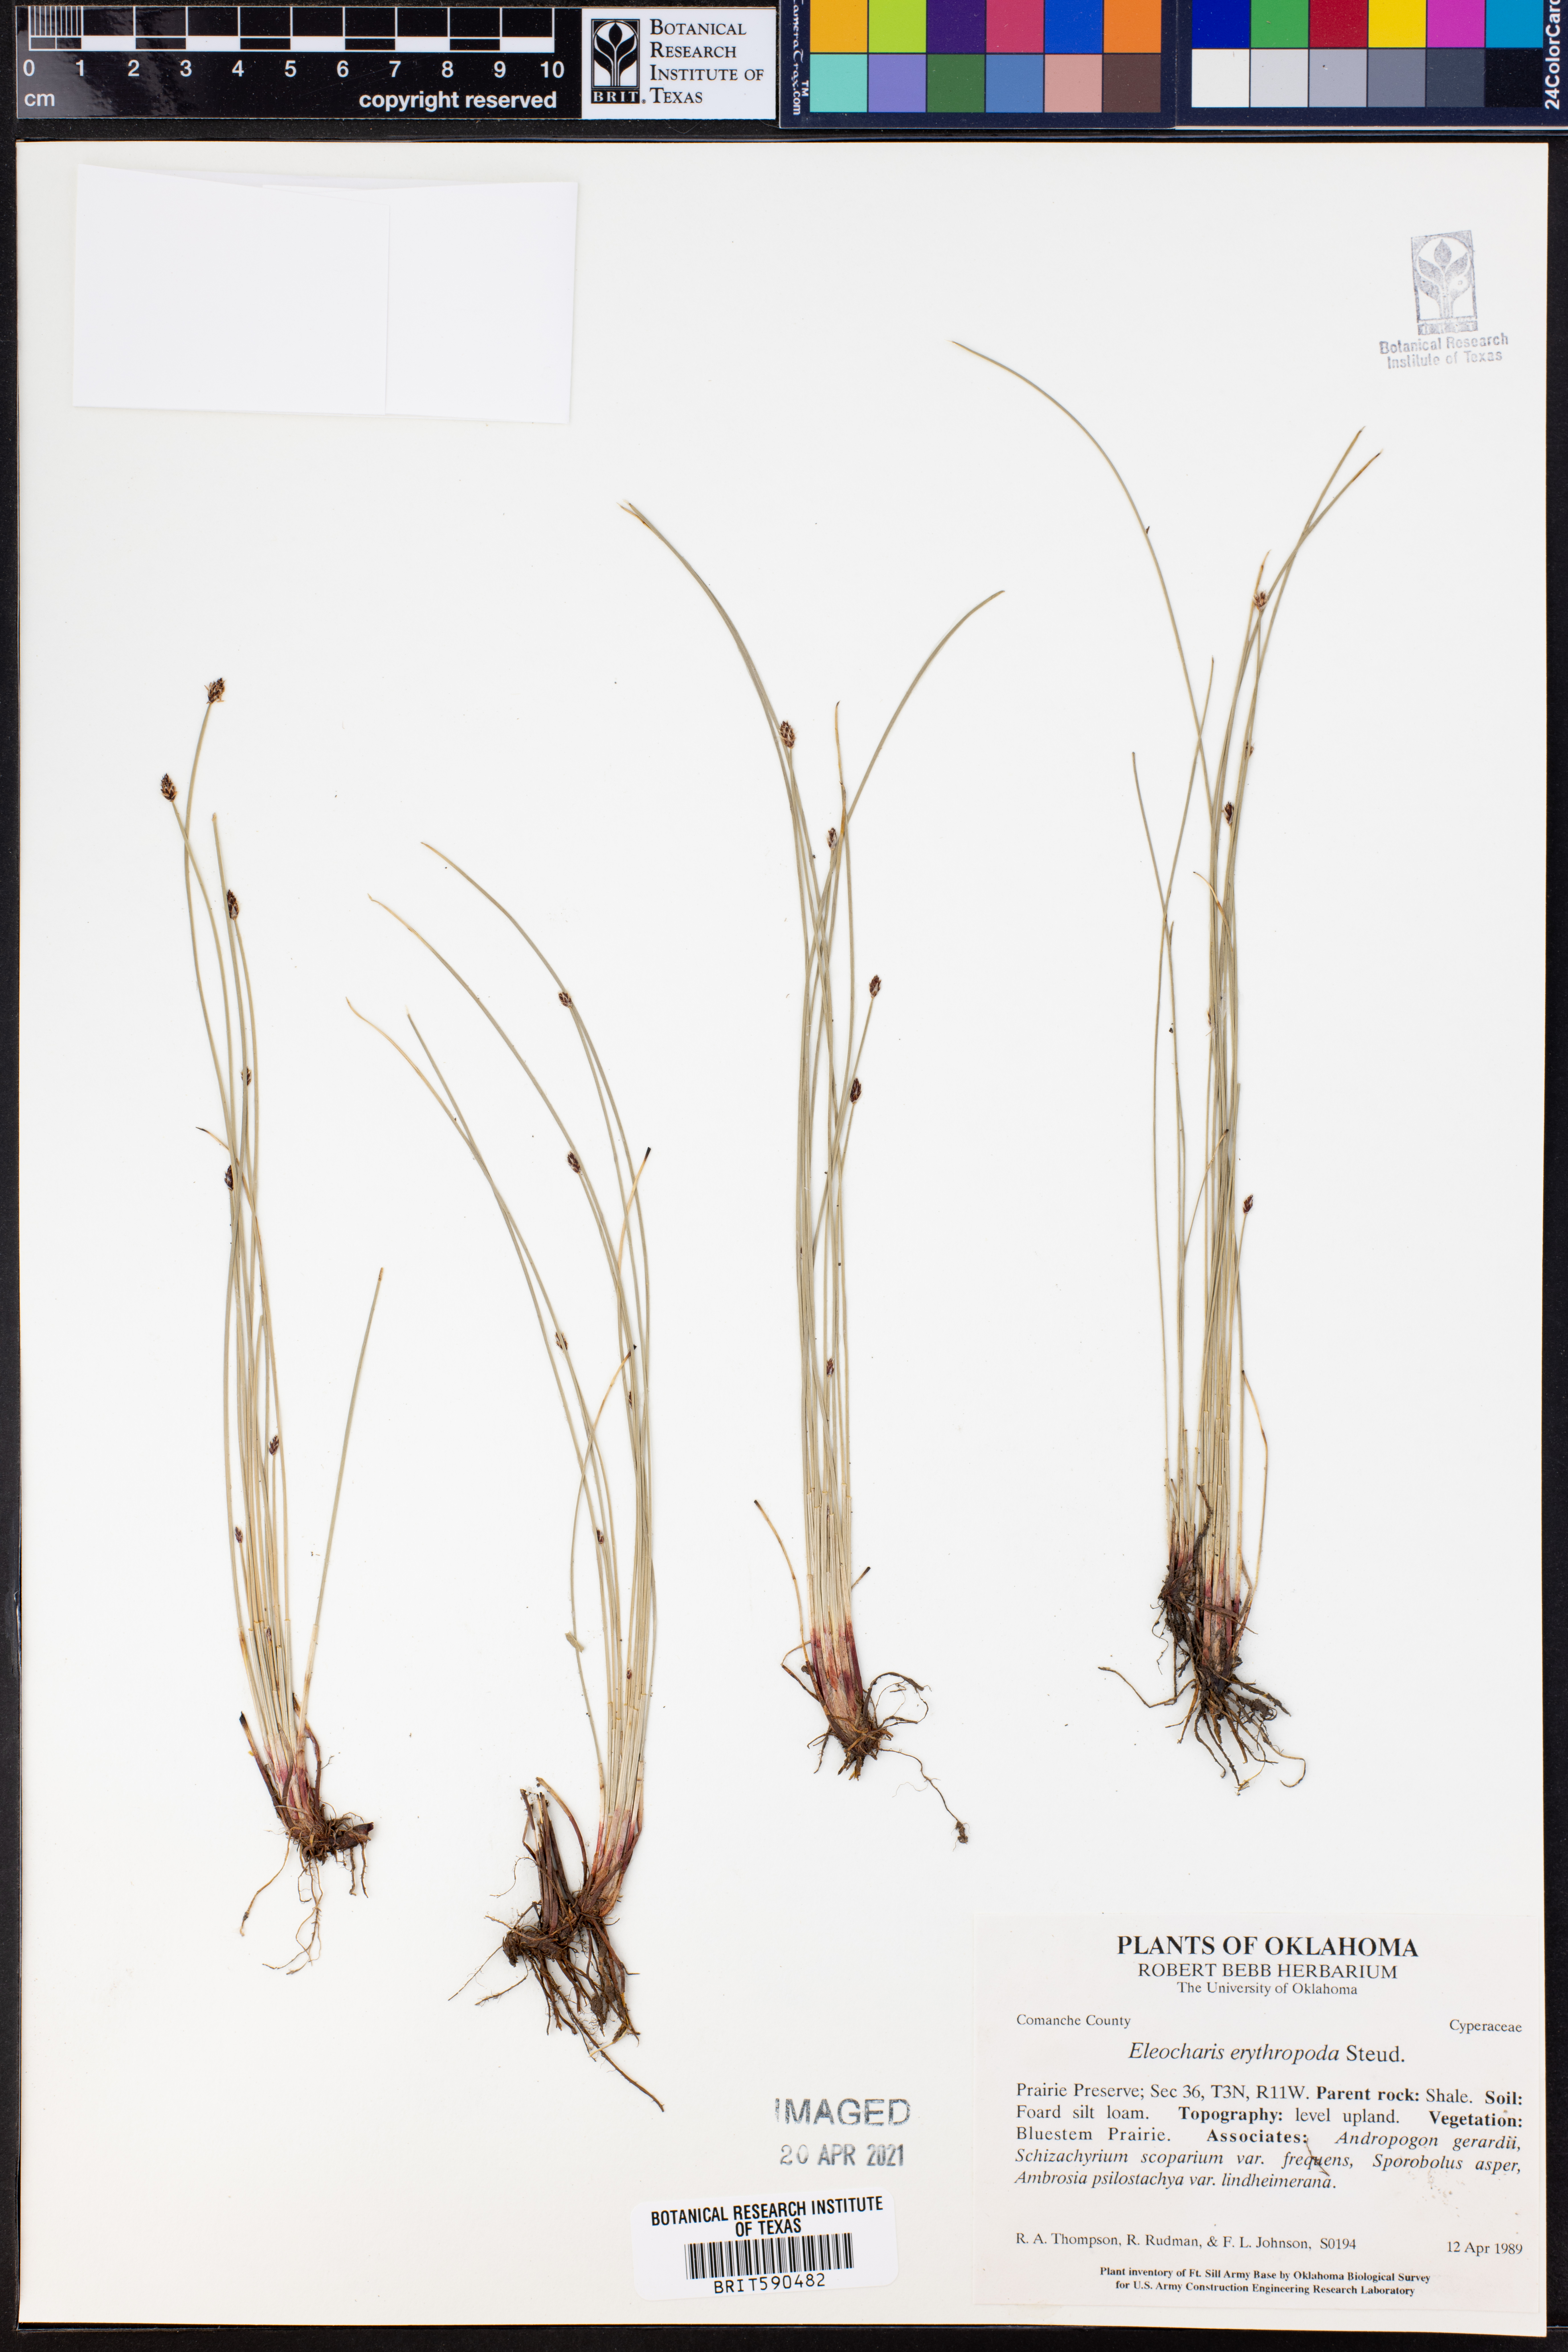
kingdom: Plantae
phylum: Tracheophyta
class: Liliopsida
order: Poales
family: Cyperaceae
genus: Eleocharis
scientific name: Eleocharis erythropoda
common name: Bald spikerush
